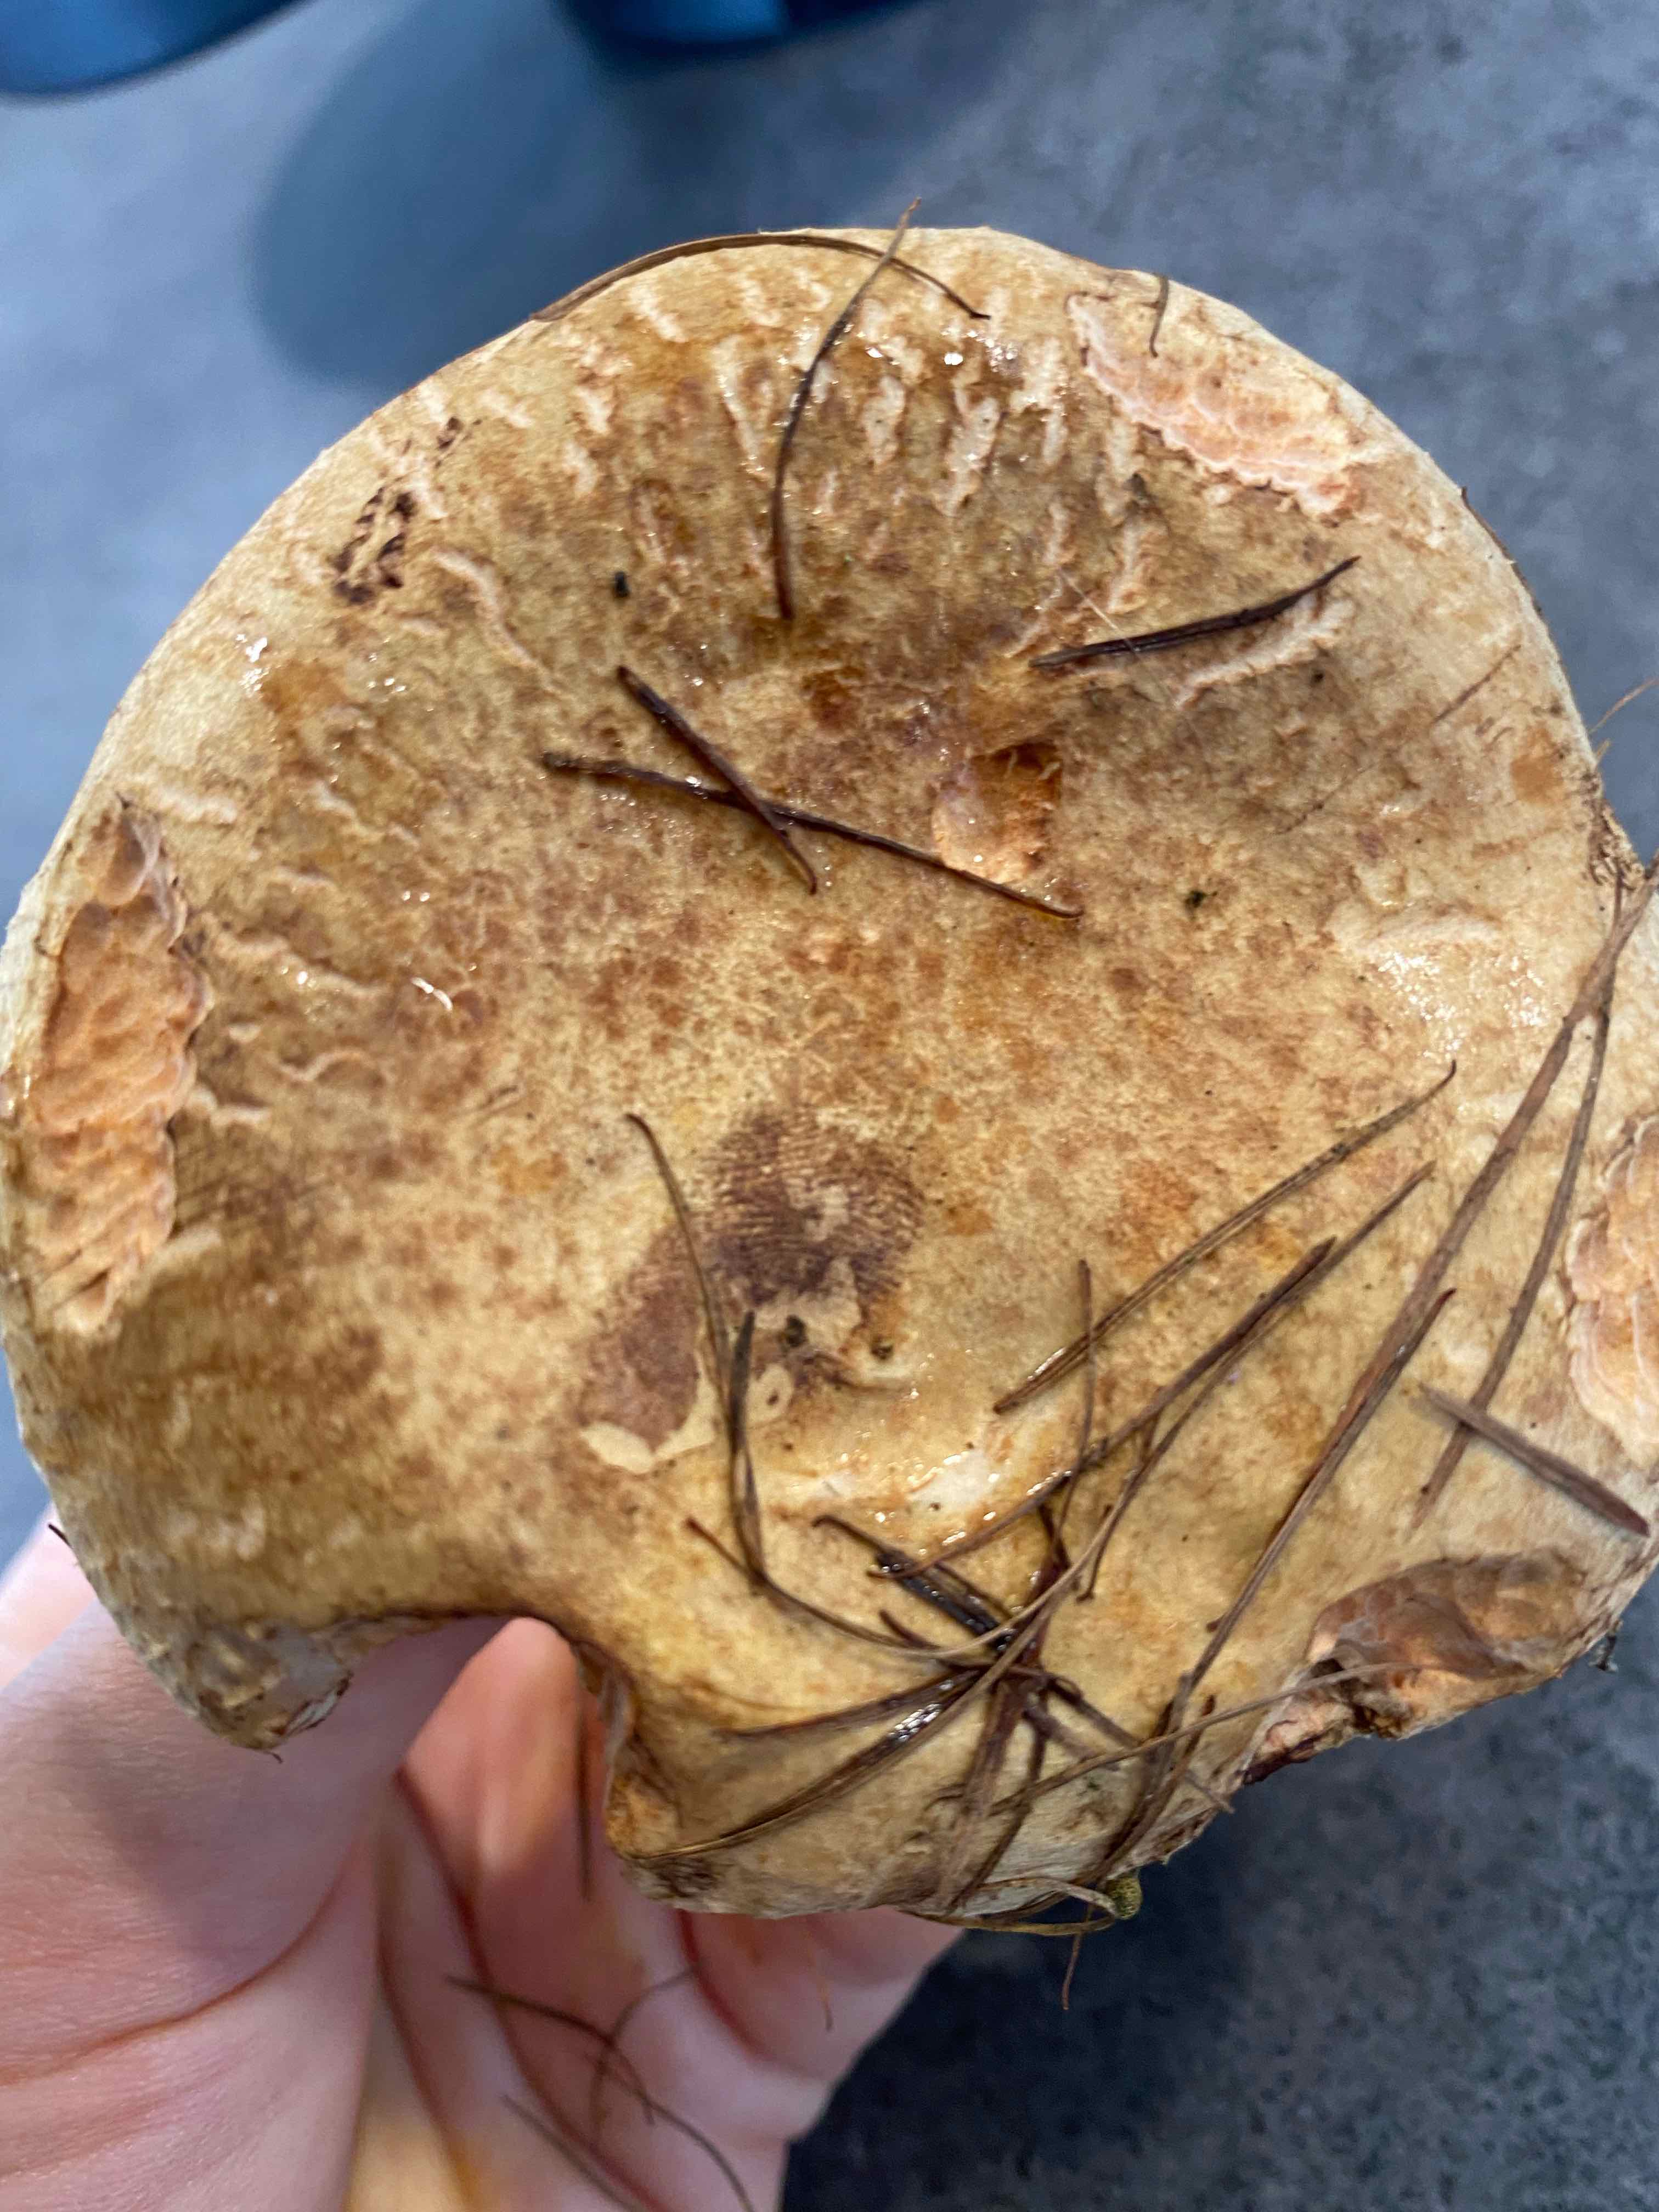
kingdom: Fungi
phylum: Basidiomycota
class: Agaricomycetes
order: Boletales
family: Paxillaceae
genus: Paxillus
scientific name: Paxillus involutus
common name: almindelig netbladhat
